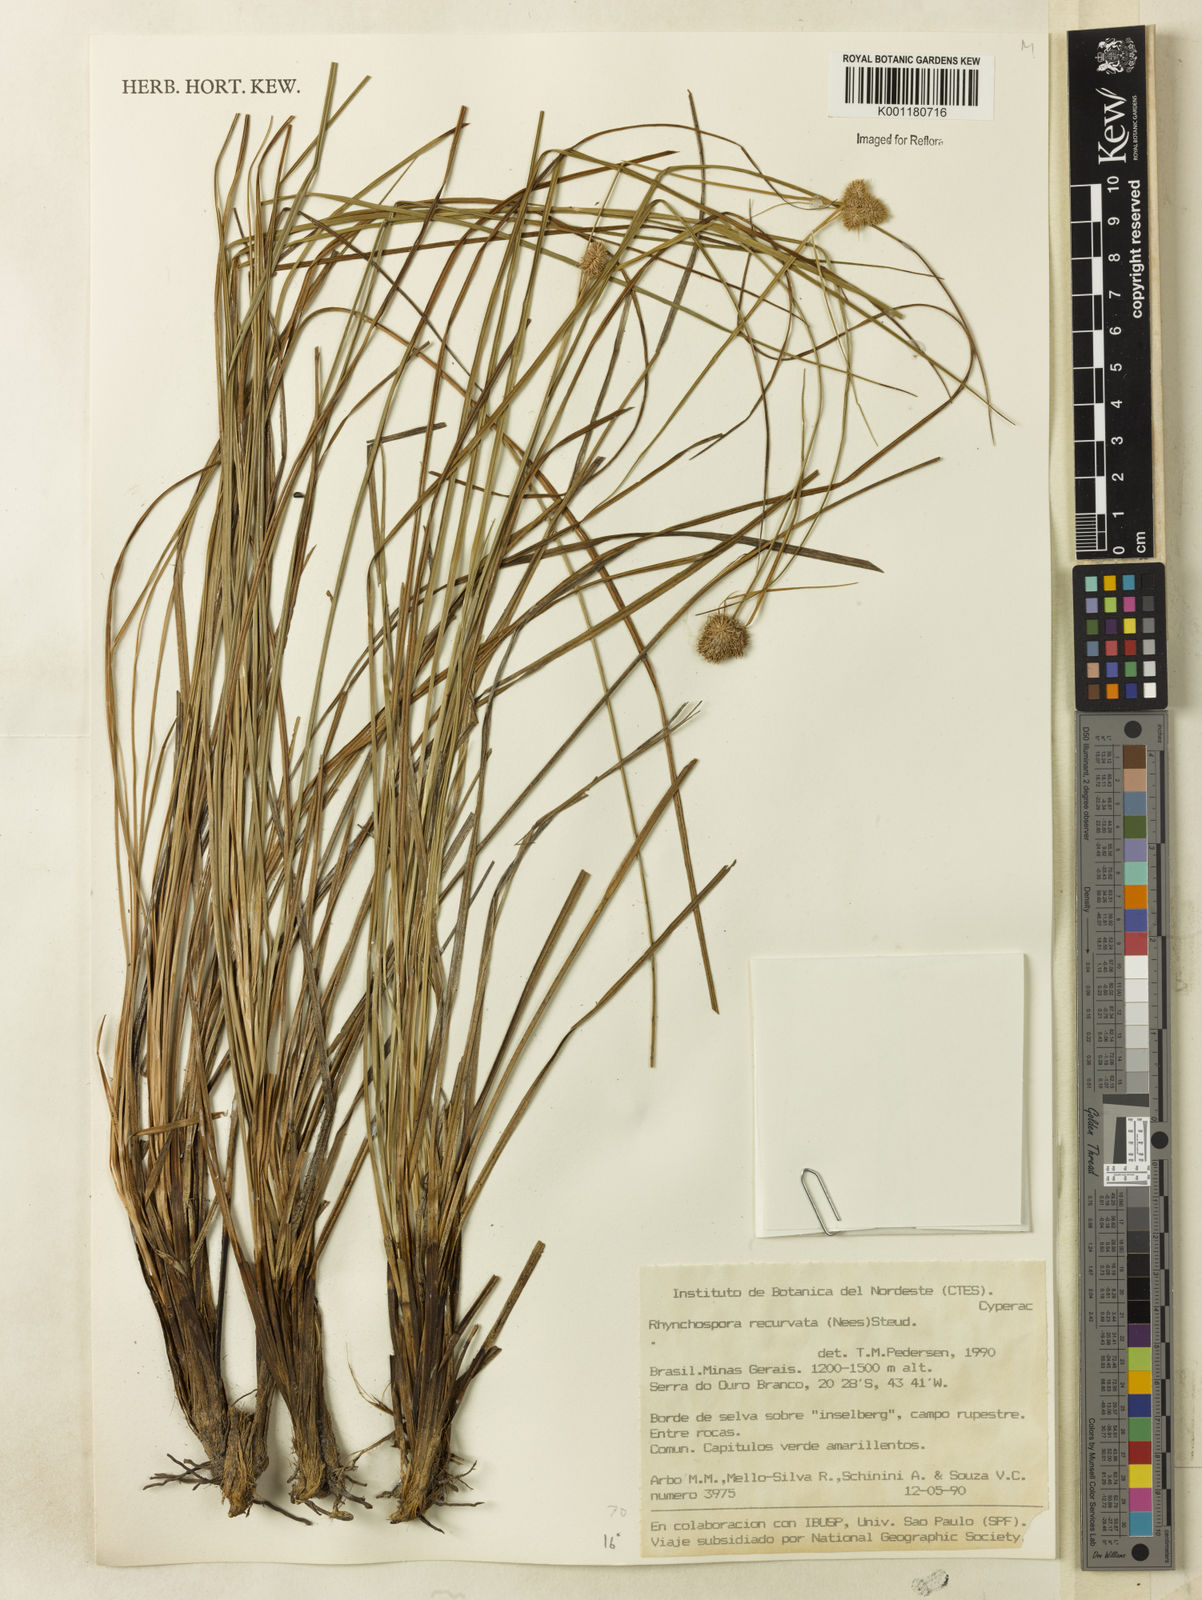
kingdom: Plantae
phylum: Tracheophyta
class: Liliopsida
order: Poales
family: Cyperaceae
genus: Rhynchospora
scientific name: Rhynchospora recurvata
